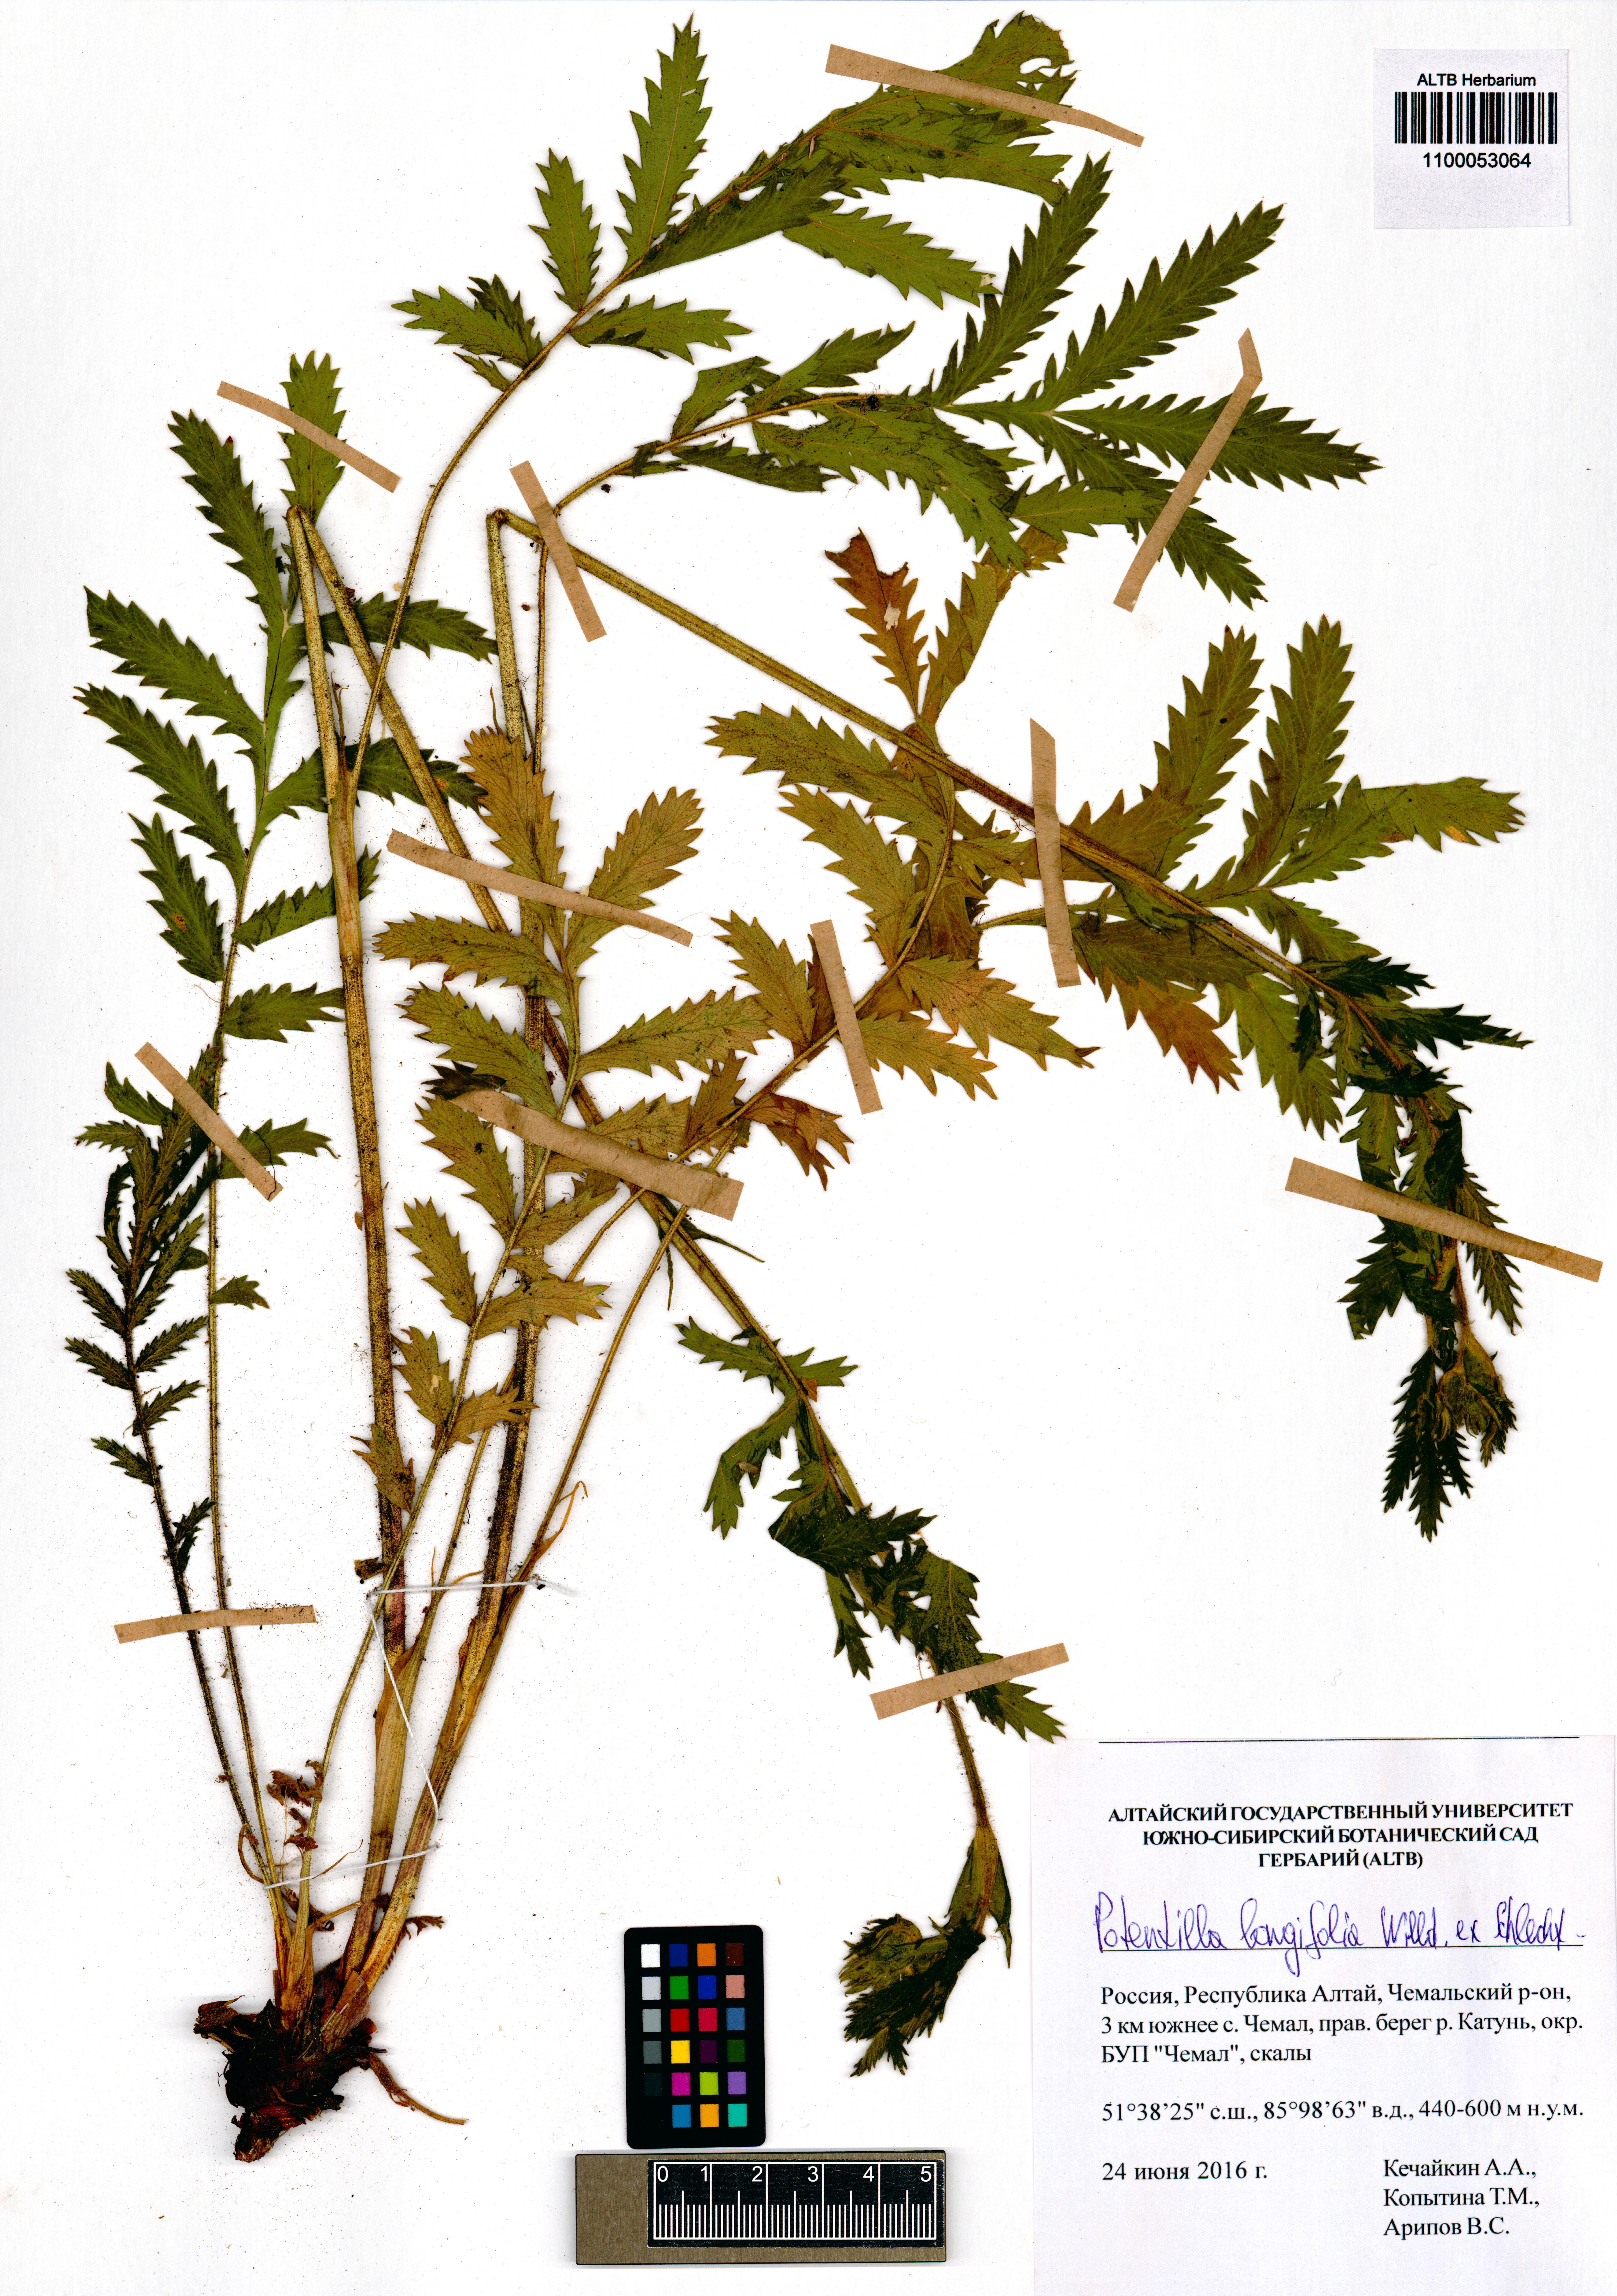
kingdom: Plantae
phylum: Tracheophyta
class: Magnoliopsida
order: Rosales
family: Rosaceae
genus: Potentilla
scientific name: Potentilla longifolia
